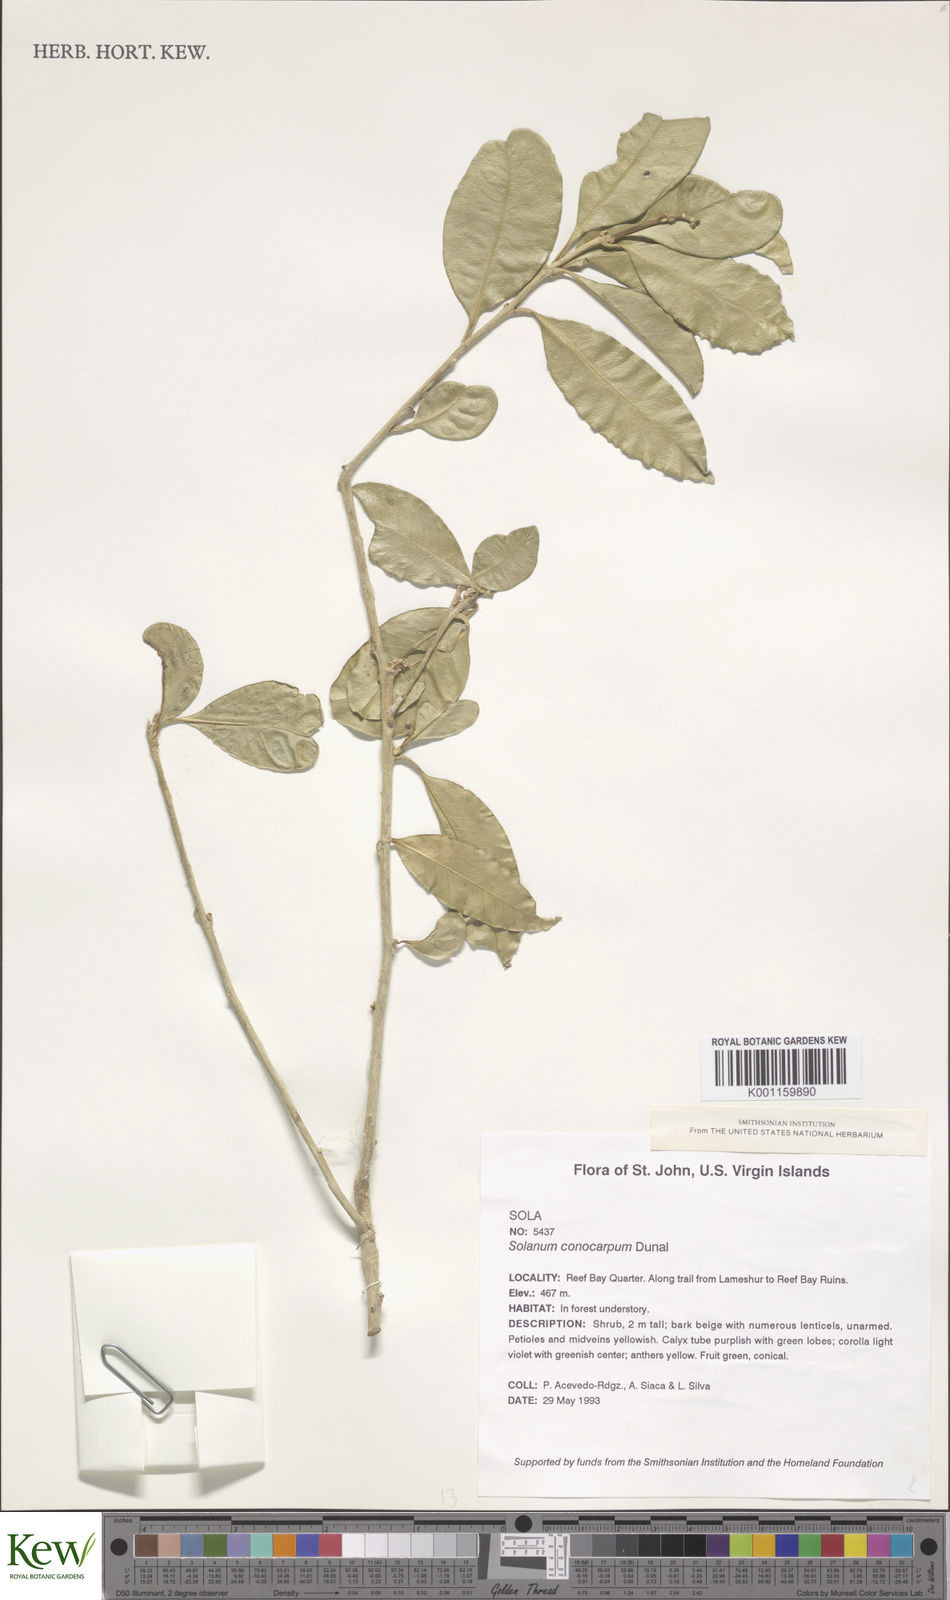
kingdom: Plantae
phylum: Tracheophyta
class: Magnoliopsida
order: Solanales
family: Solanaceae
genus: Solanum
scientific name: Solanum conocarpum
